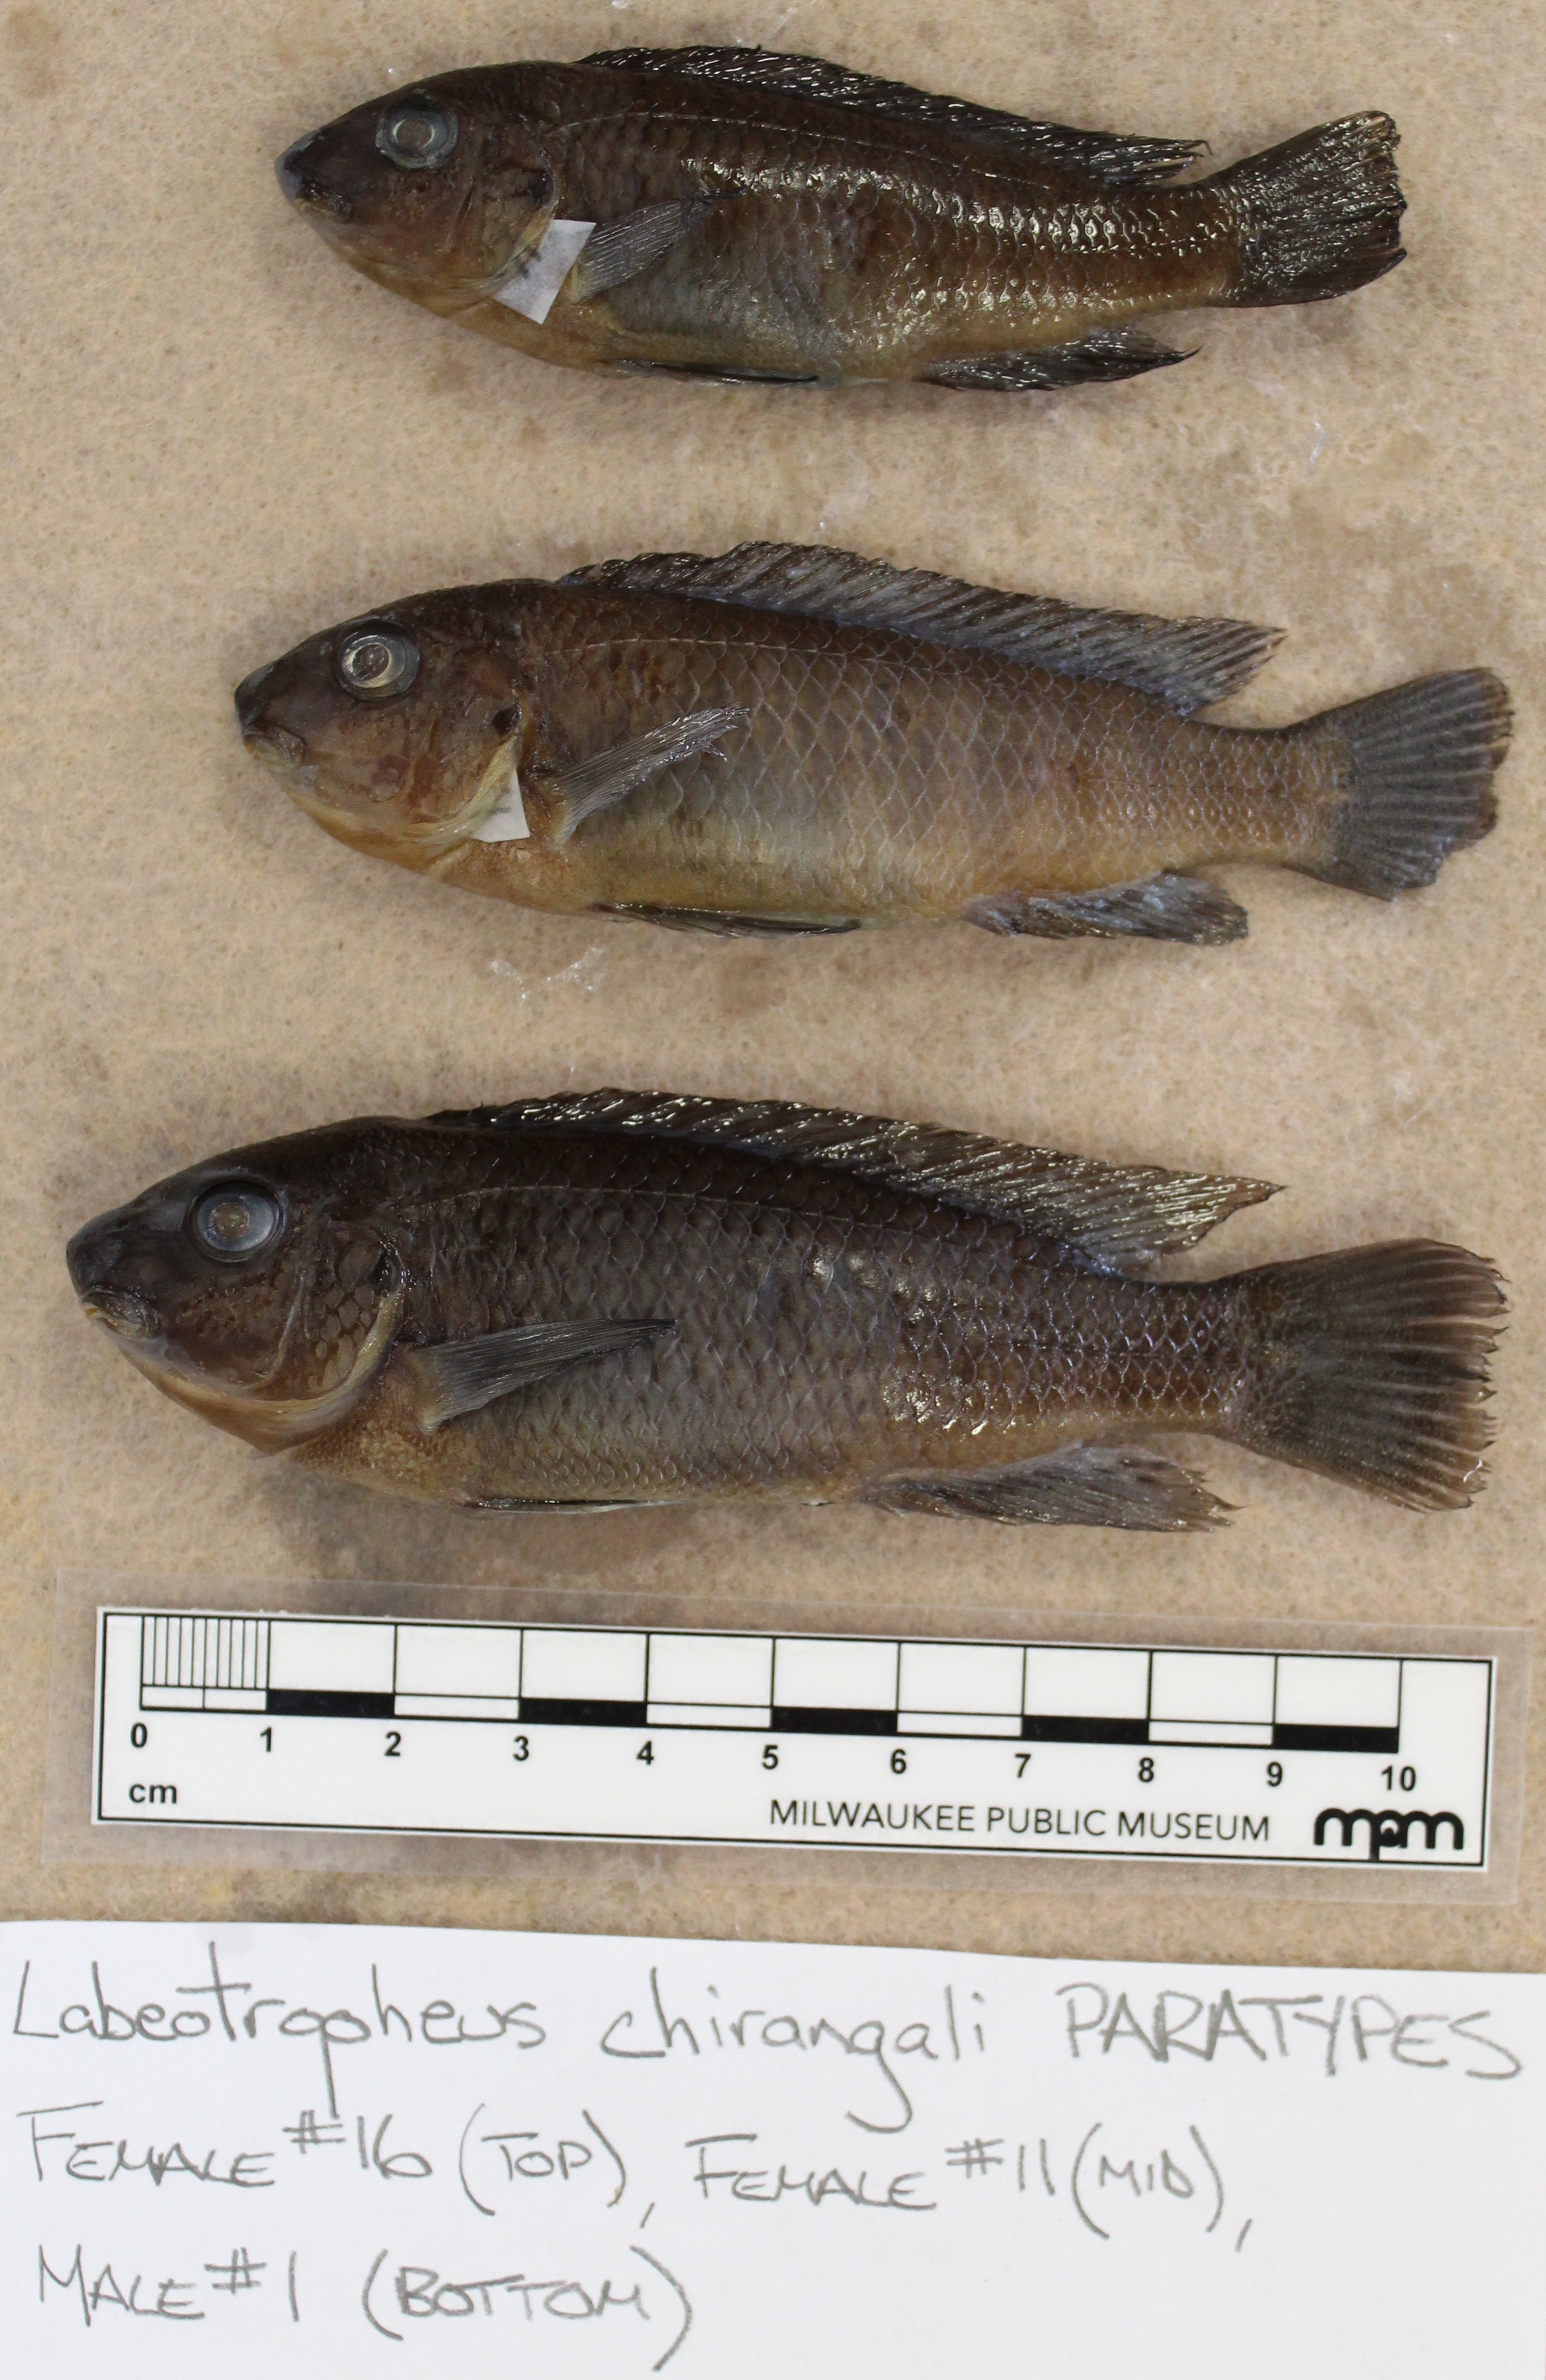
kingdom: Animalia
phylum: Chordata
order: Perciformes
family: Cichlidae
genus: Labeotropheus
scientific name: Labeotropheus
